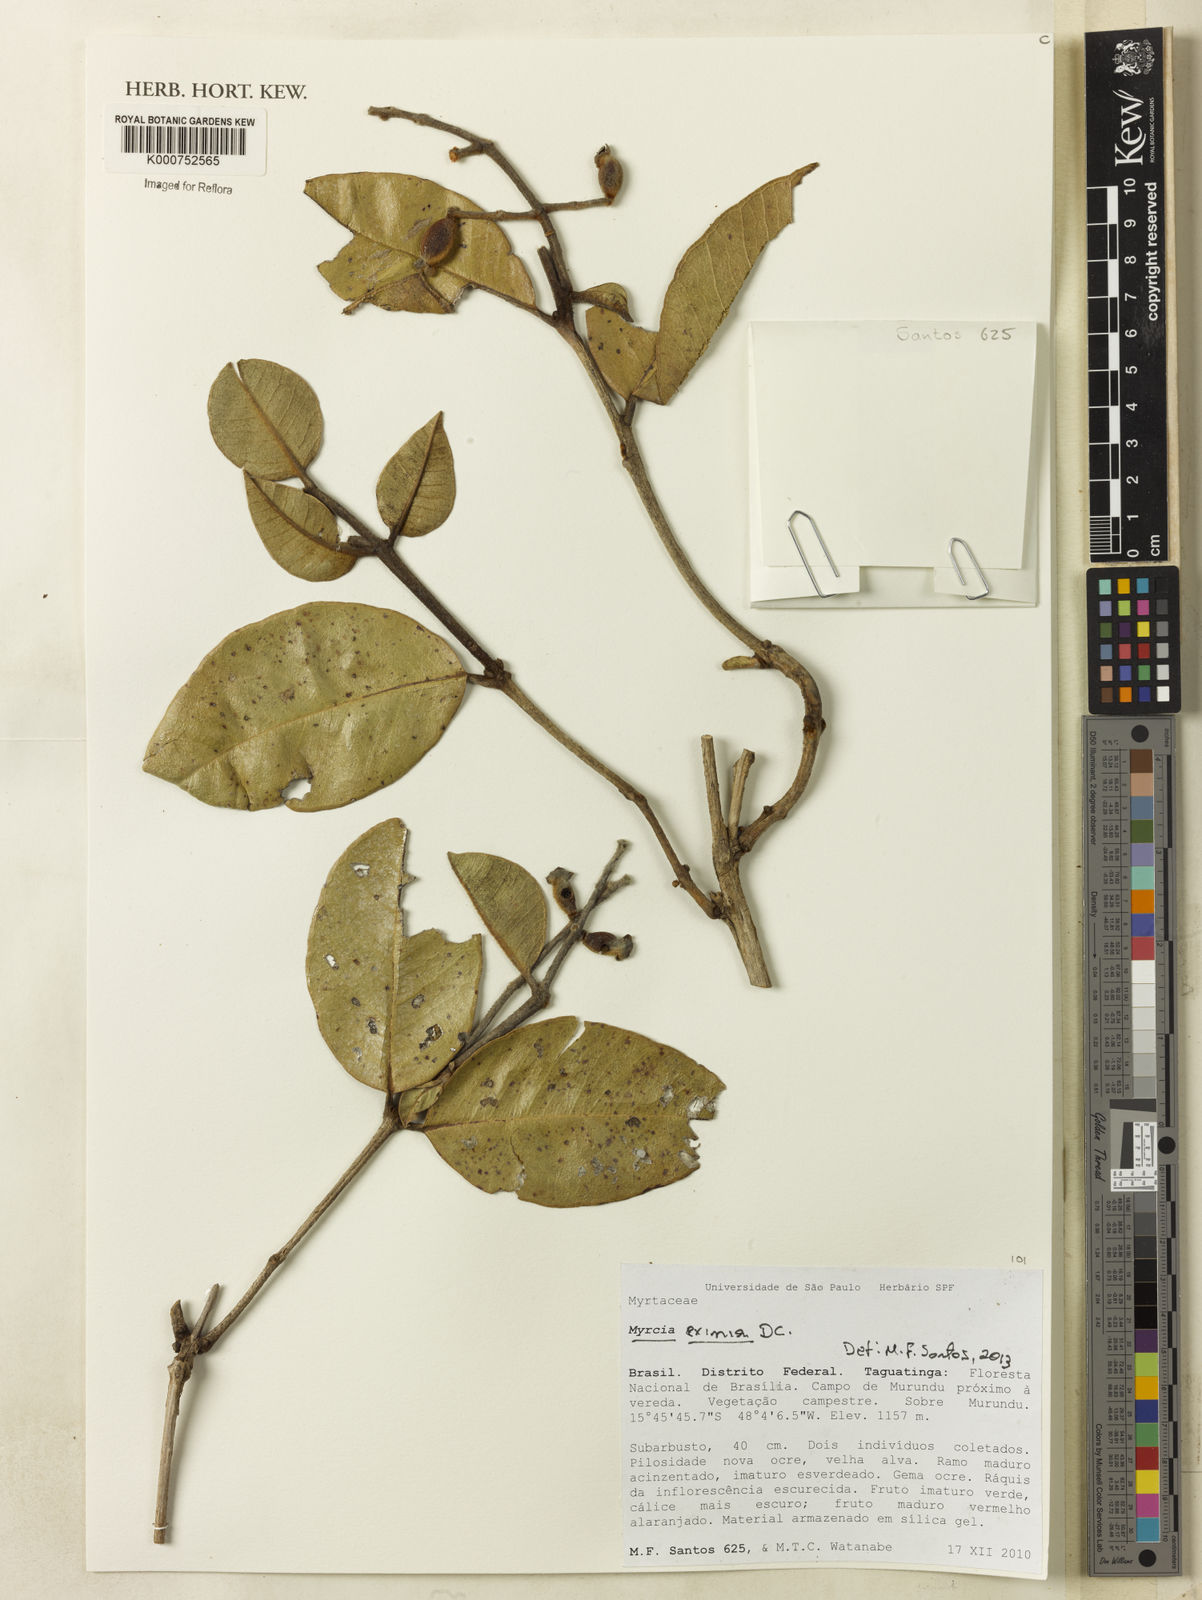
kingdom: Plantae
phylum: Tracheophyta
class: Magnoliopsida
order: Myrtales
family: Myrtaceae
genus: Myrcia
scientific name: Myrcia tomentosa
